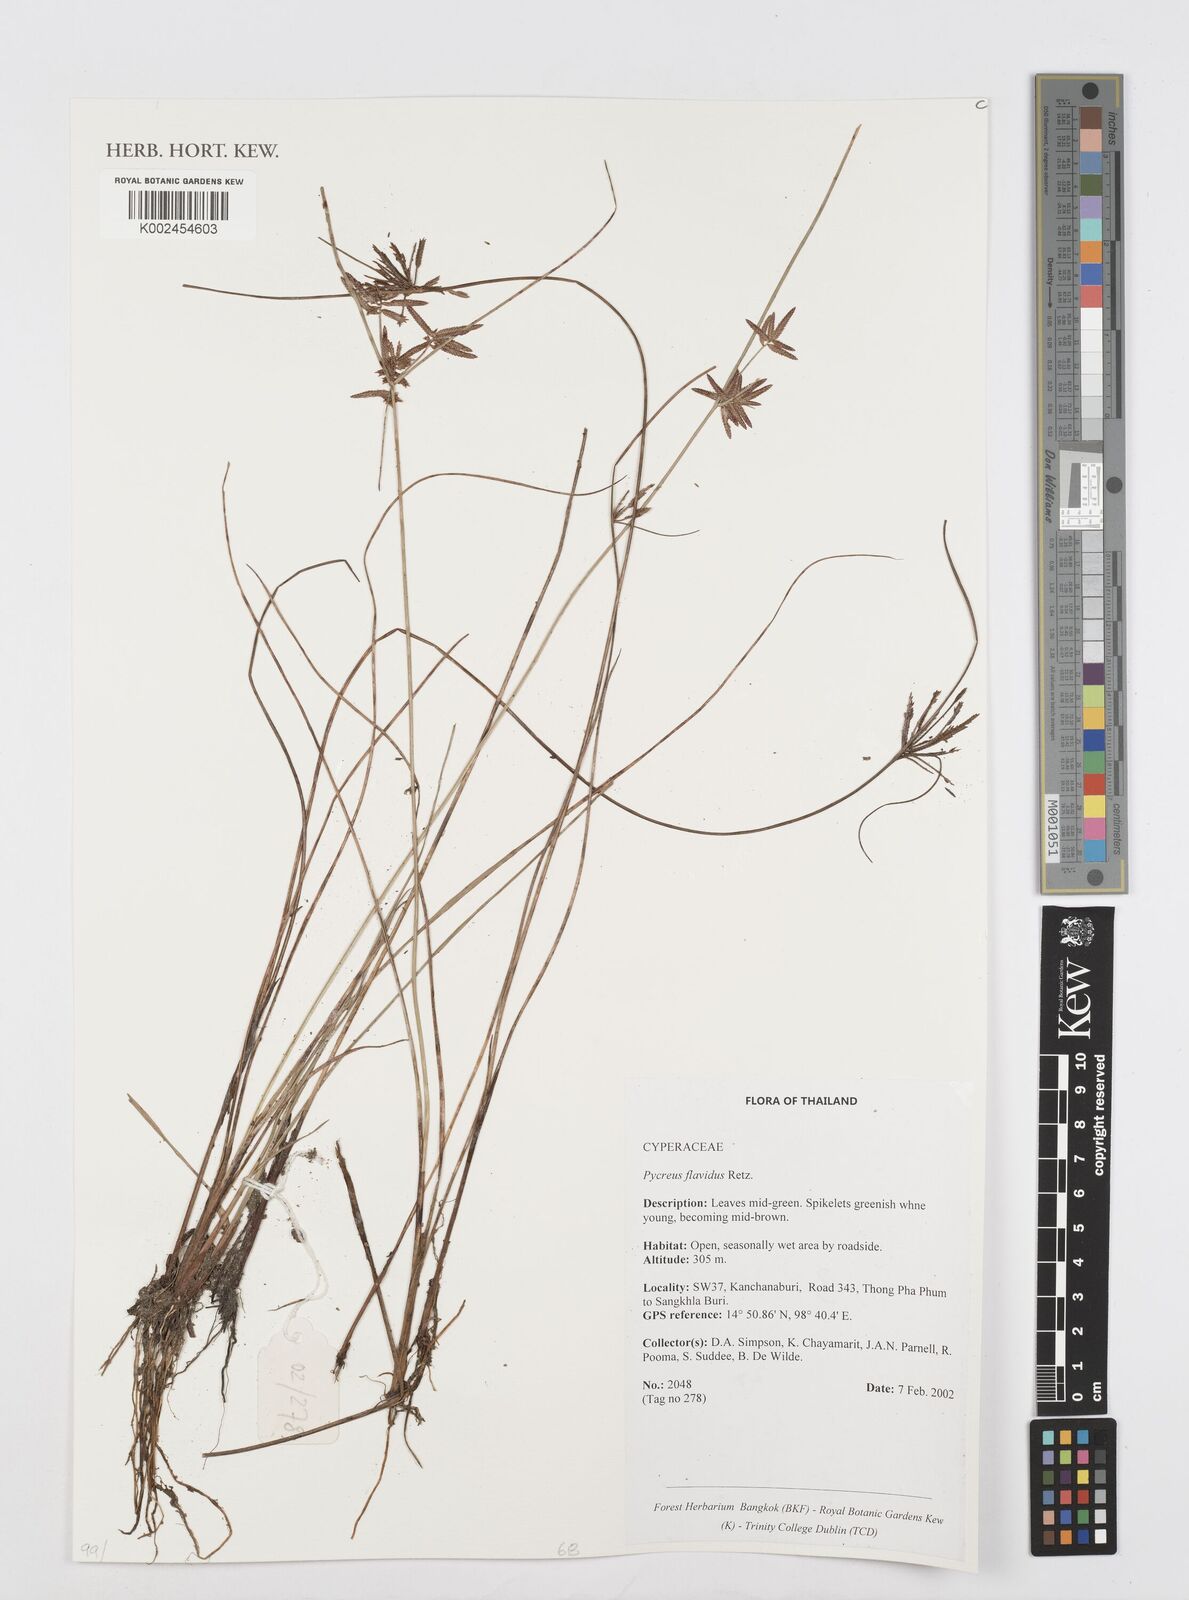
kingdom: Plantae
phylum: Tracheophyta
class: Liliopsida
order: Poales
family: Cyperaceae
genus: Cyperus
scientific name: Cyperus flavidus
